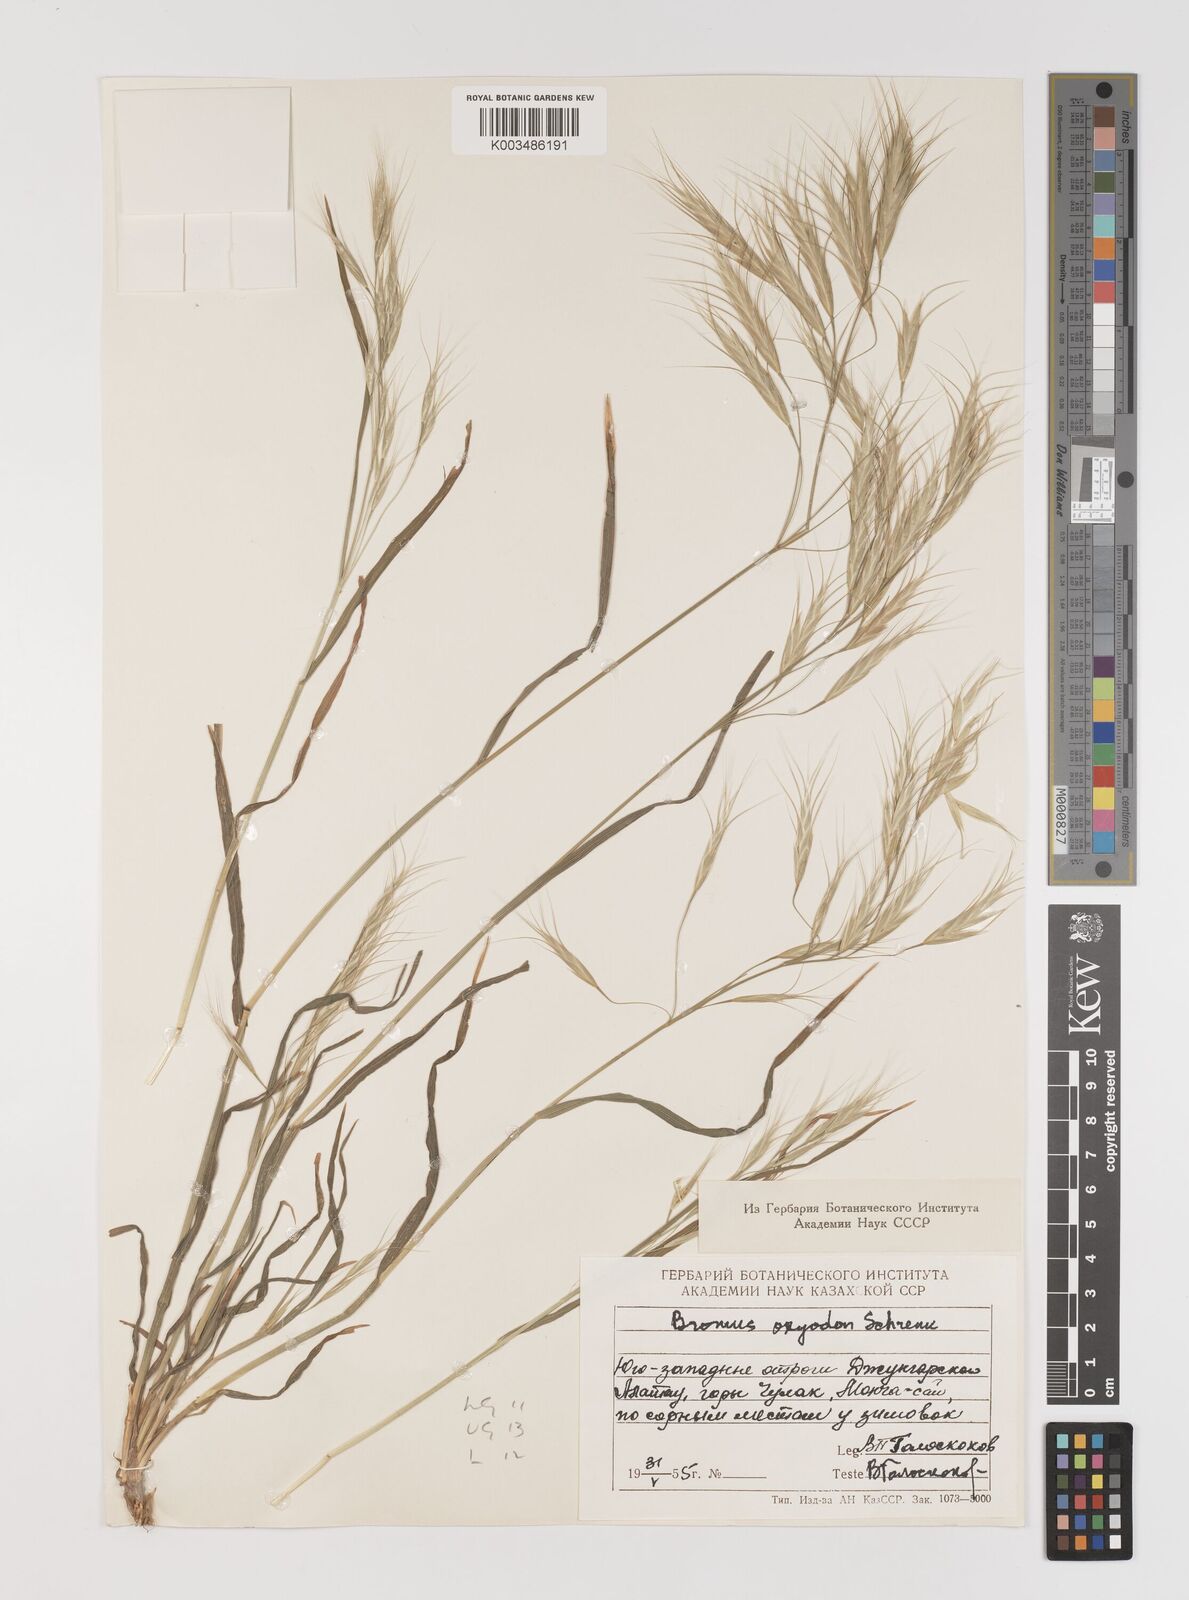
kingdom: Plantae
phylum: Tracheophyta
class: Liliopsida
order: Poales
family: Poaceae
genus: Bromus
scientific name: Bromus oxyodon
